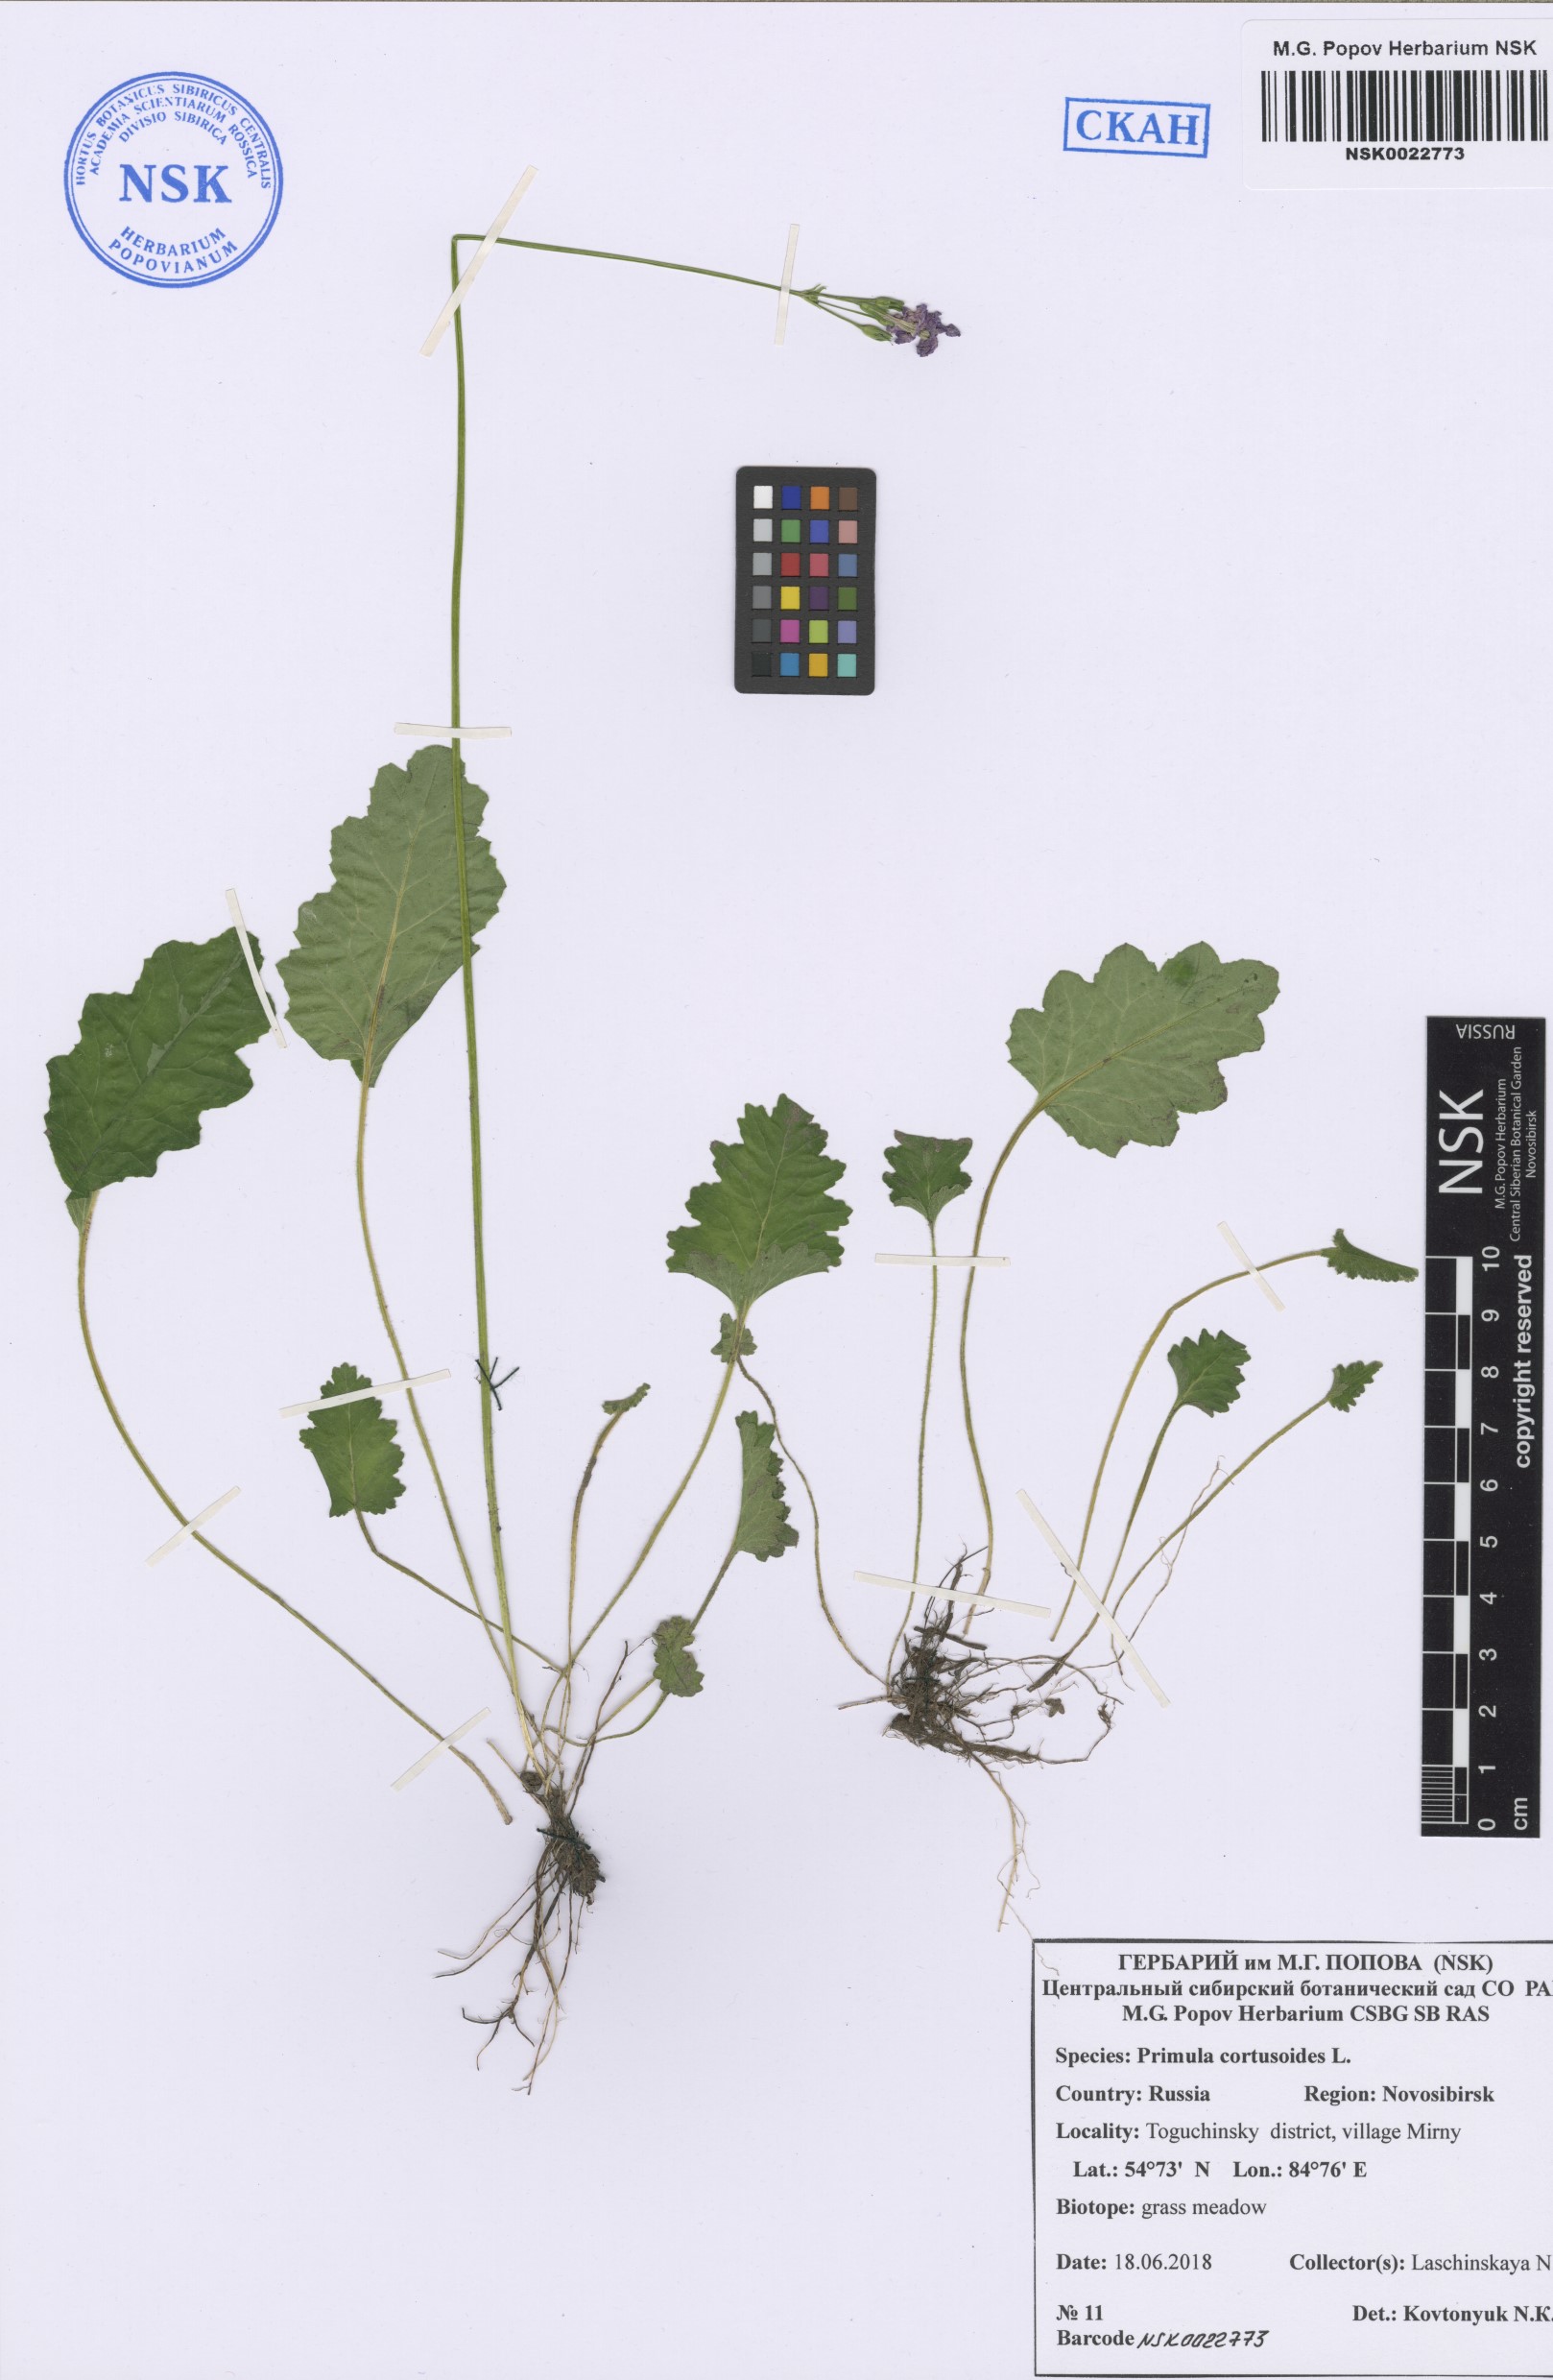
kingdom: Plantae
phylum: Tracheophyta
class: Magnoliopsida
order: Ericales
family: Primulaceae
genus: Primula
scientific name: Primula cortusoides
